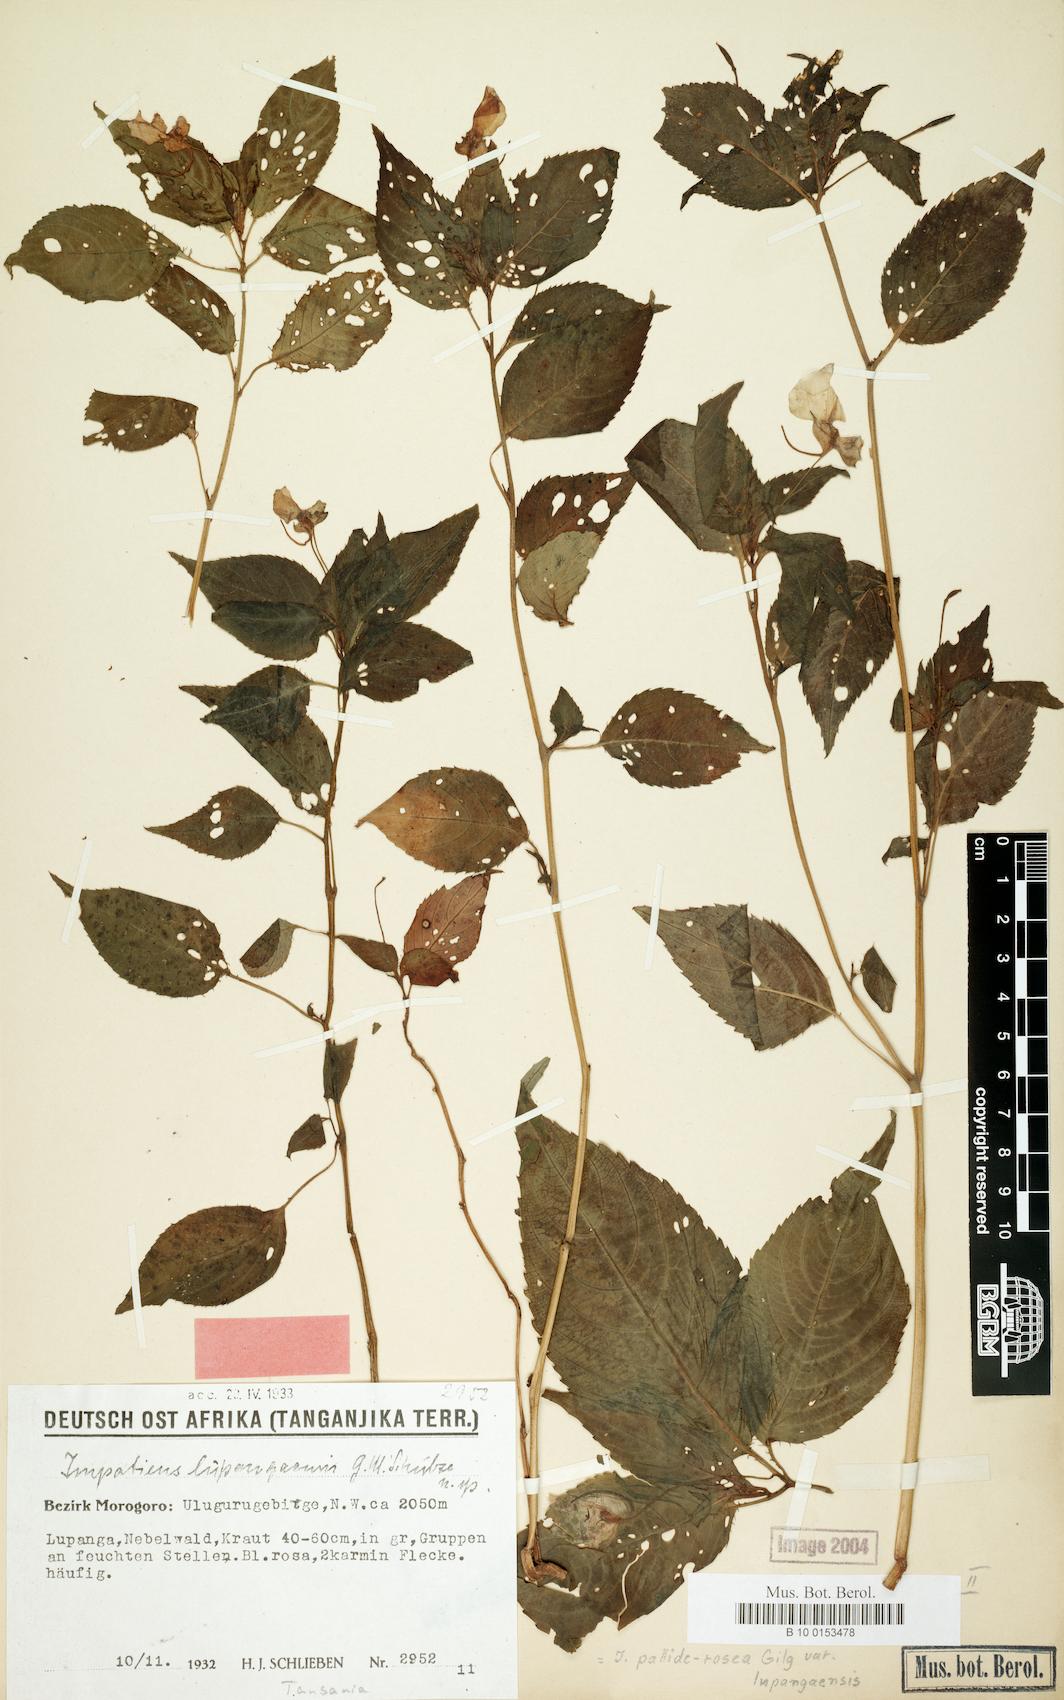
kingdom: Plantae
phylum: Tracheophyta
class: Magnoliopsida
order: Ericales
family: Balsaminaceae
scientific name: Balsaminaceae
